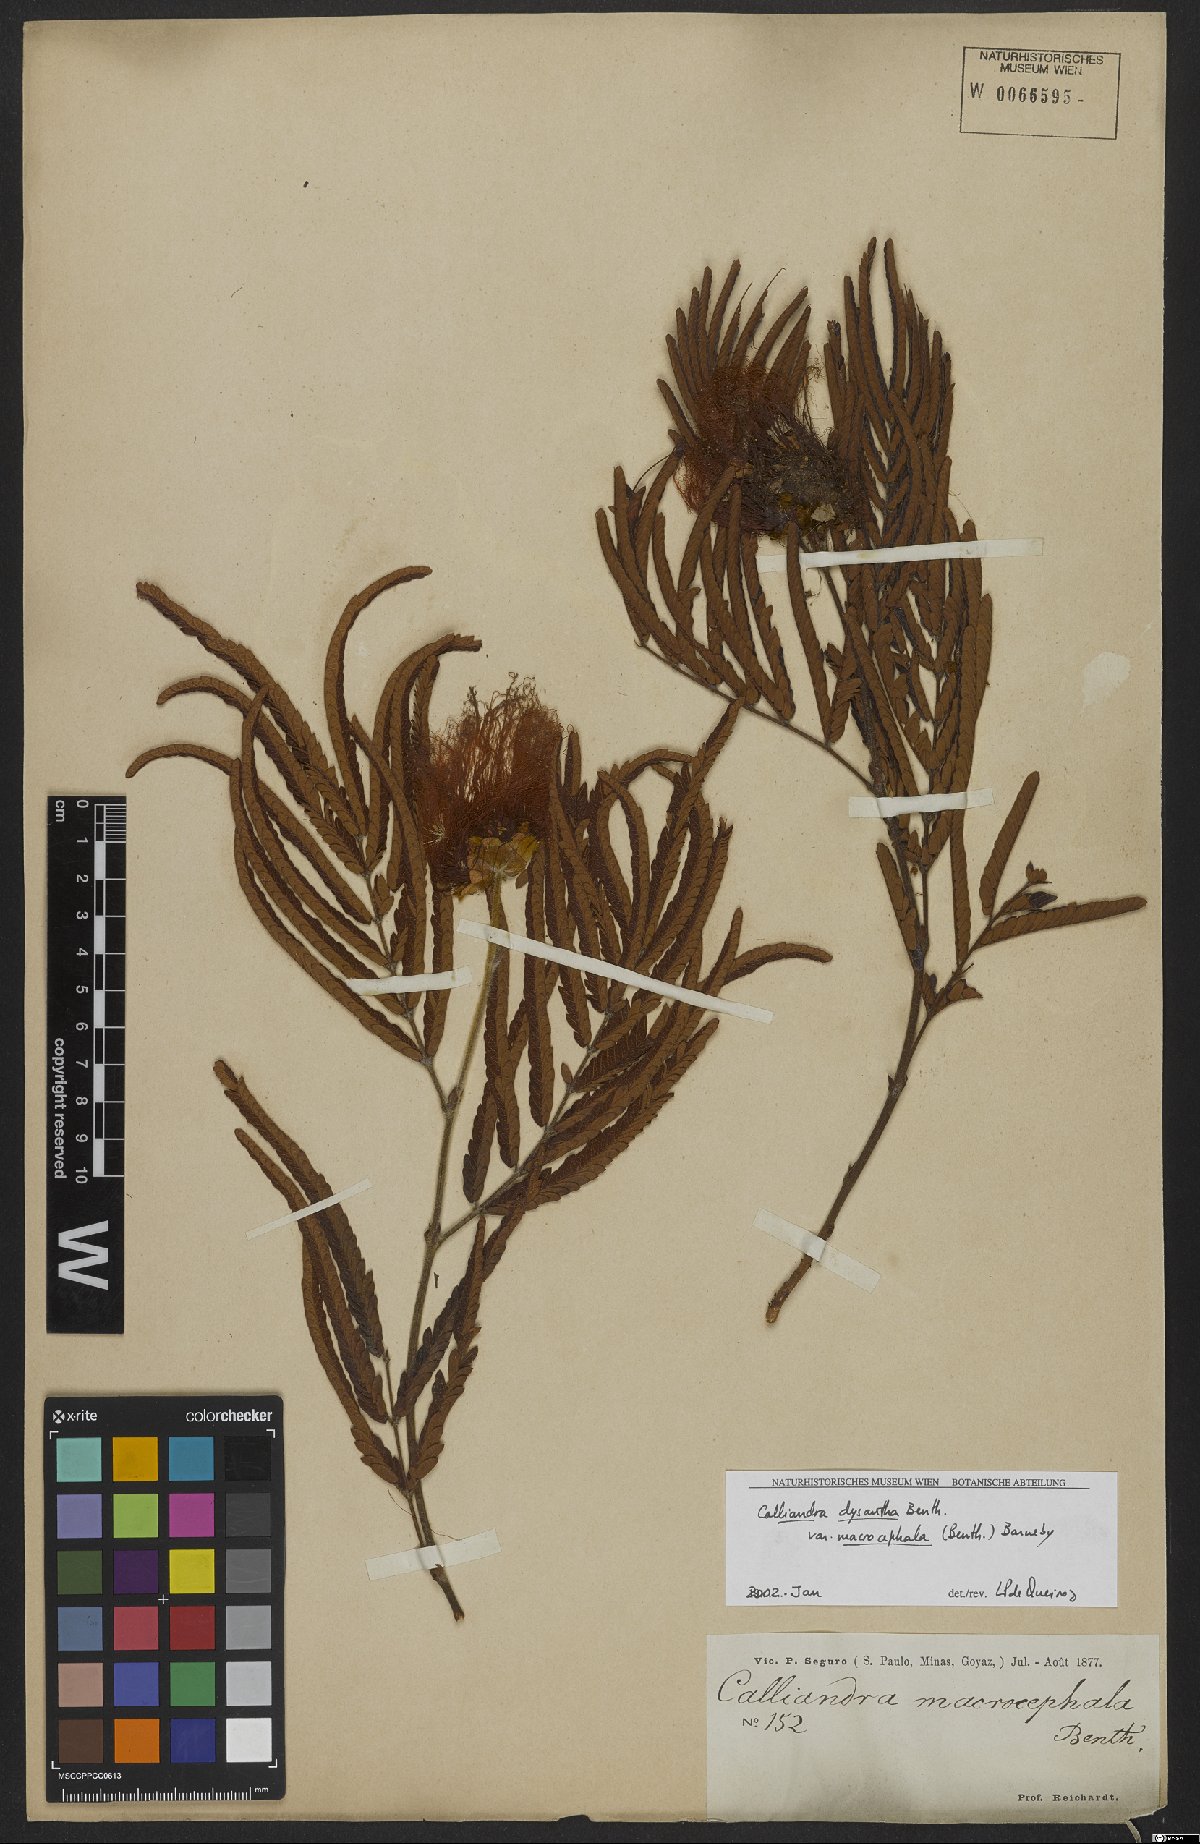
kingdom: Plantae
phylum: Tracheophyta
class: Magnoliopsida
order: Fabales
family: Fabaceae
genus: Calliandra
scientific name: Calliandra dysantha
